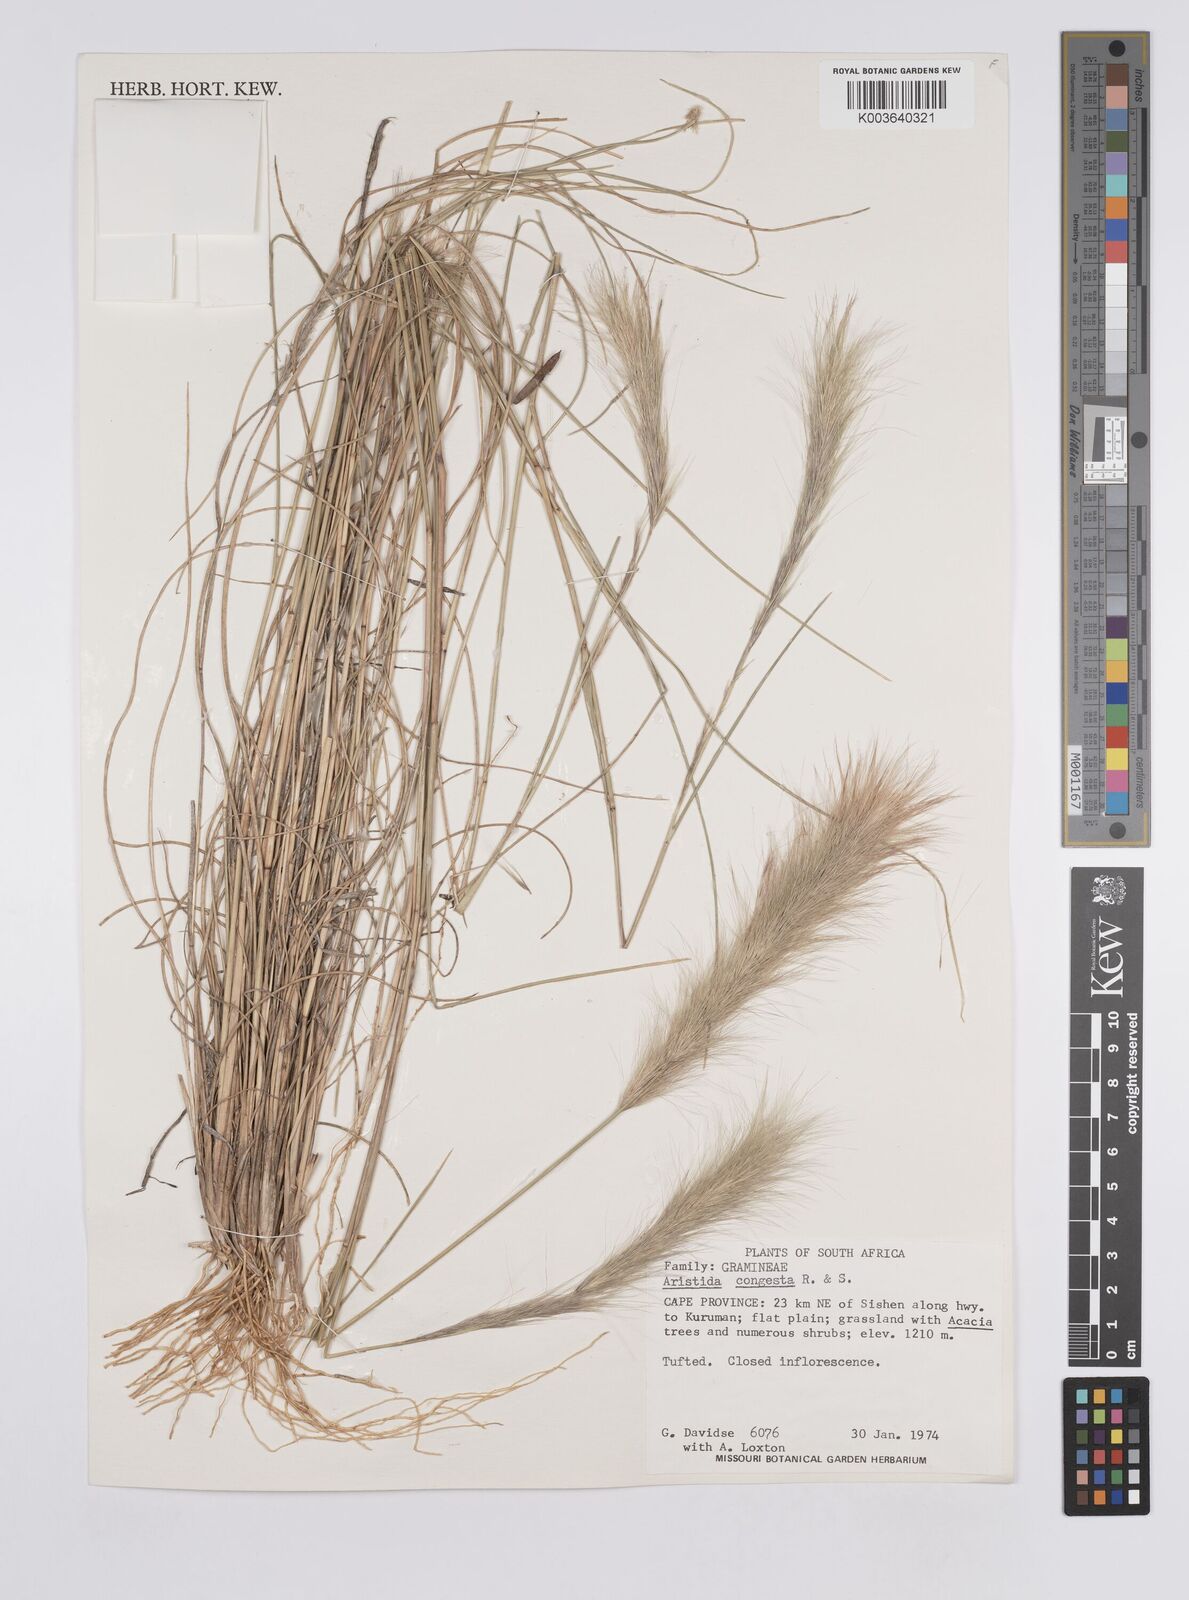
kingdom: Plantae
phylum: Tracheophyta
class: Liliopsida
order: Poales
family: Poaceae
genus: Aristida
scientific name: Aristida congesta
